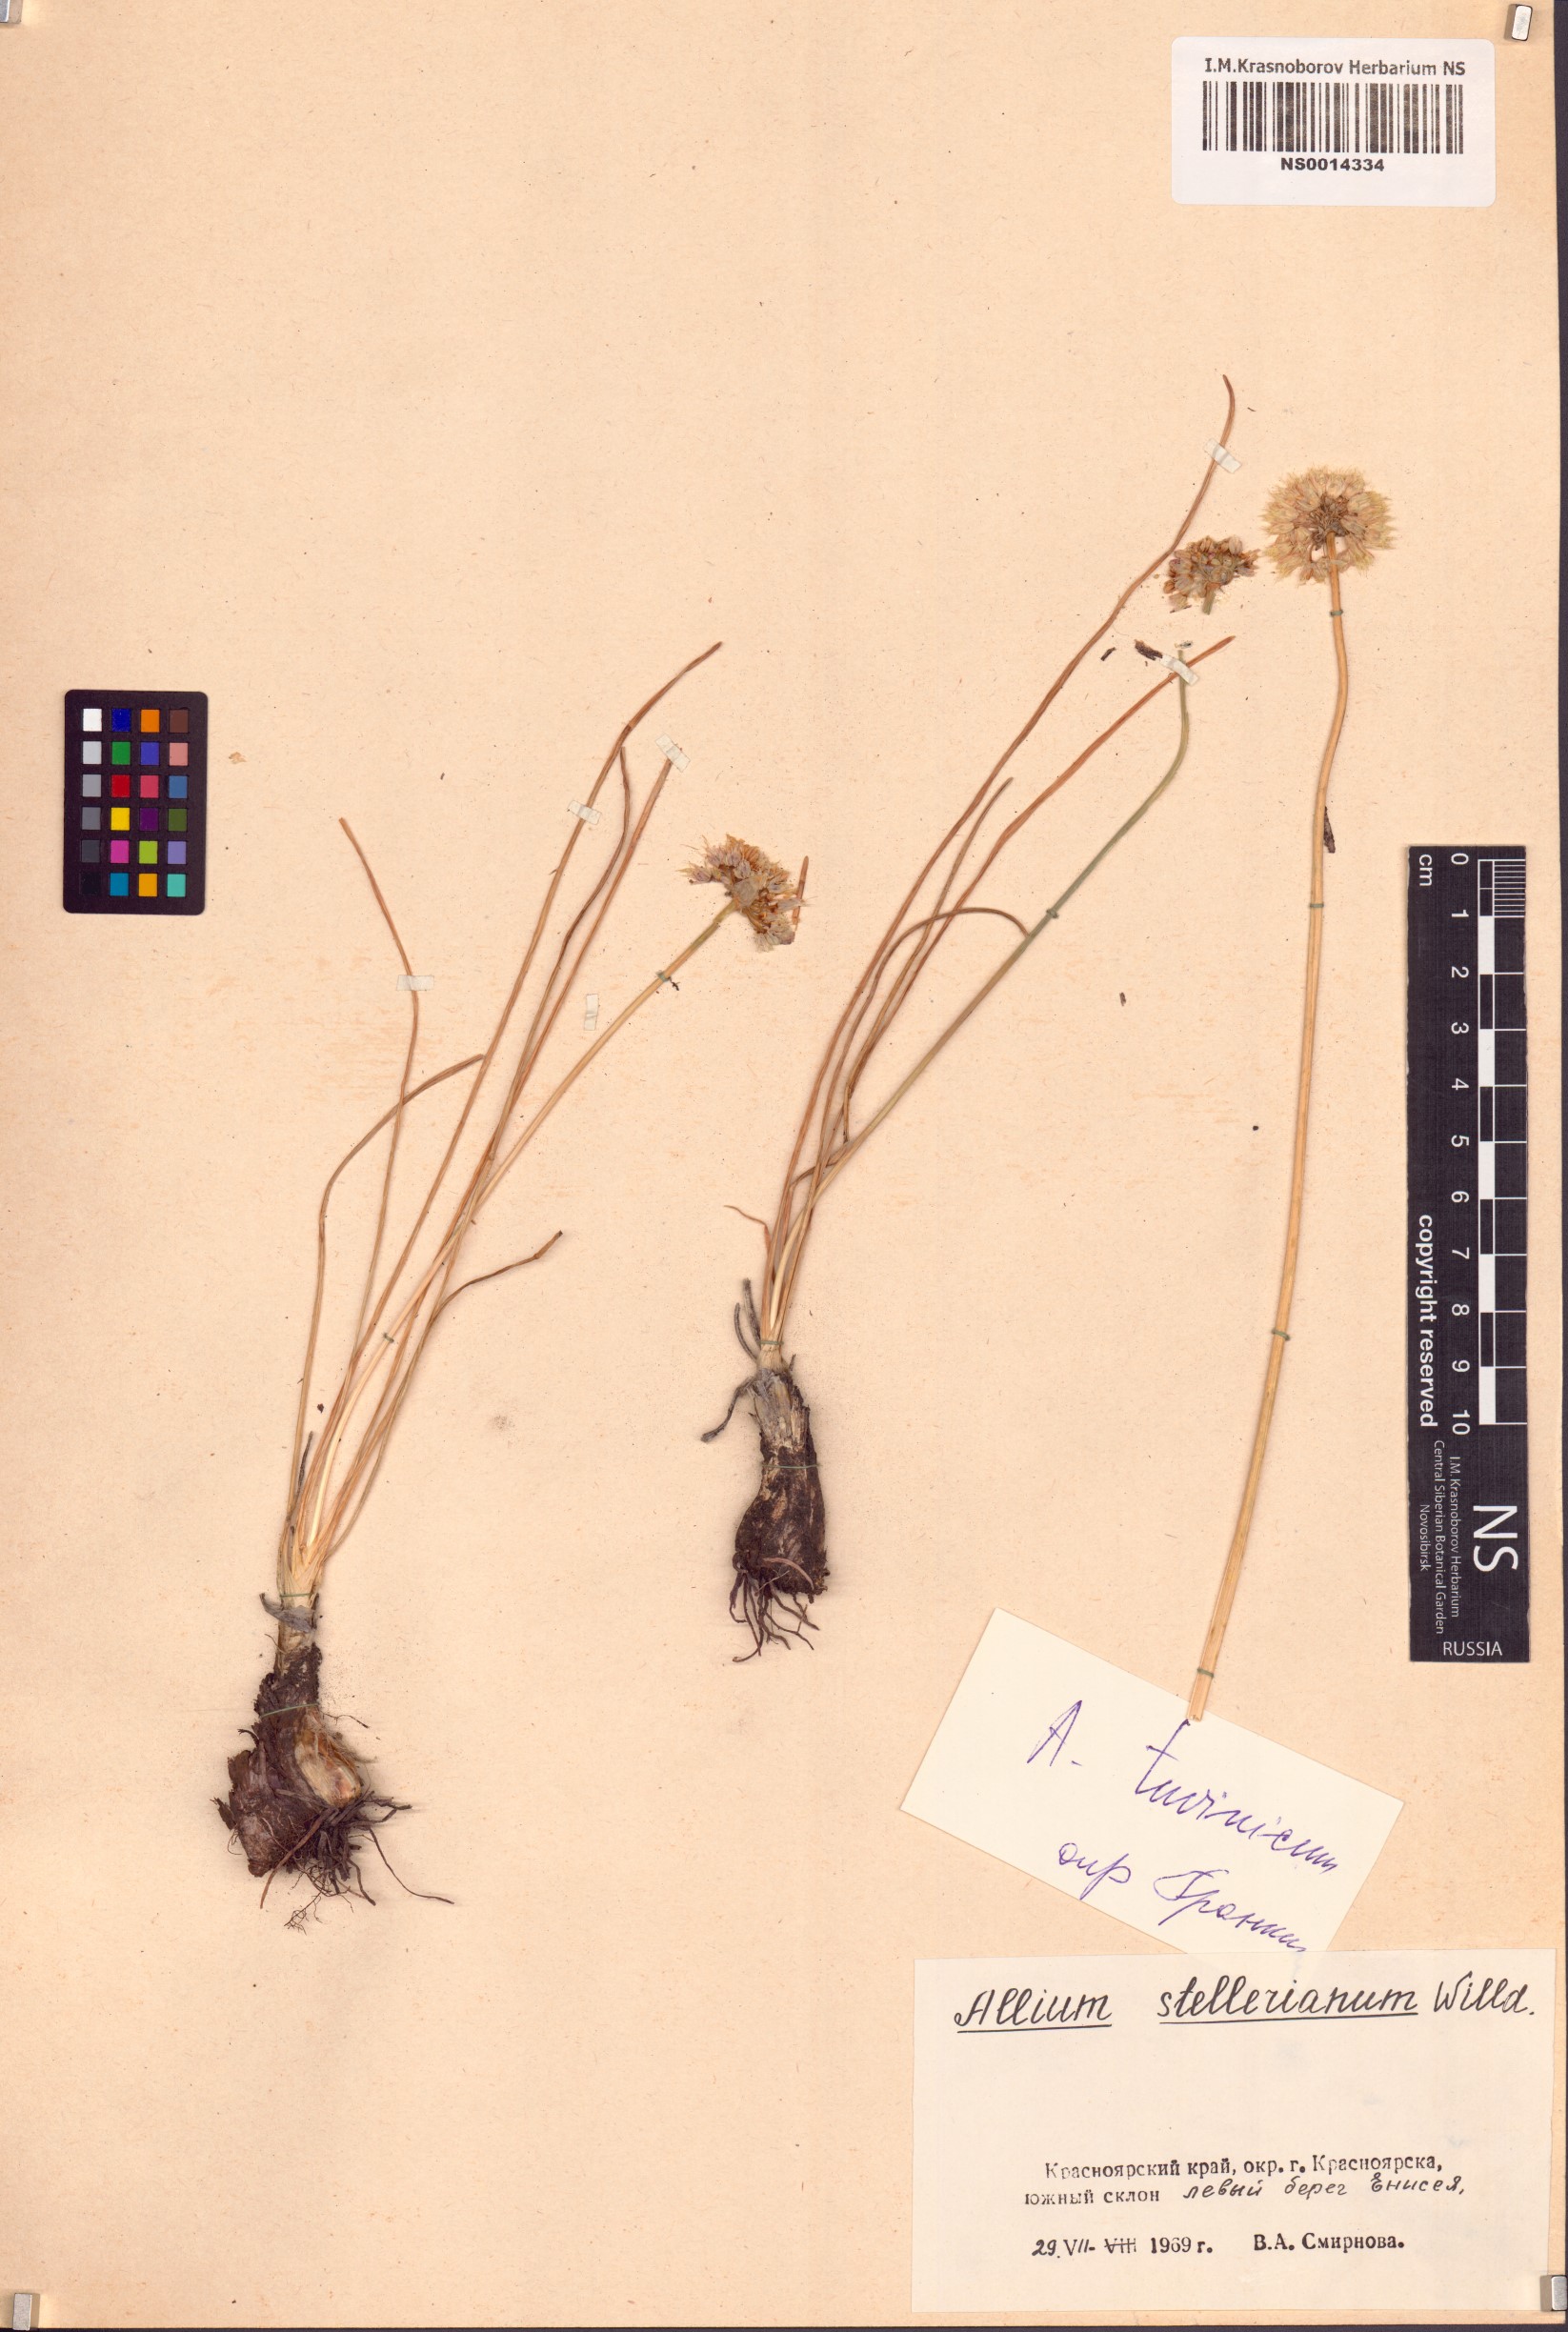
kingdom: Plantae
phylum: Tracheophyta
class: Liliopsida
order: Asparagales
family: Amaryllidaceae
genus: Allium
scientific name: Allium tuvinicum
